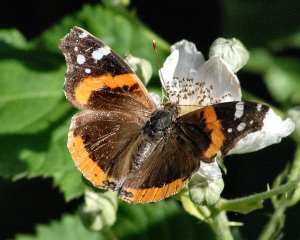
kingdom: Animalia
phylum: Arthropoda
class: Insecta
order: Lepidoptera
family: Nymphalidae
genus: Vanessa
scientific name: Vanessa atalanta
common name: Red Admiral
